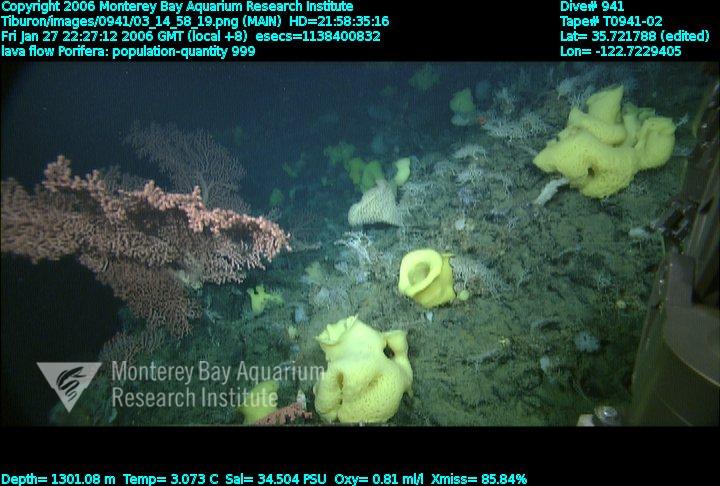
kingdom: Animalia
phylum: Porifera
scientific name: Porifera
